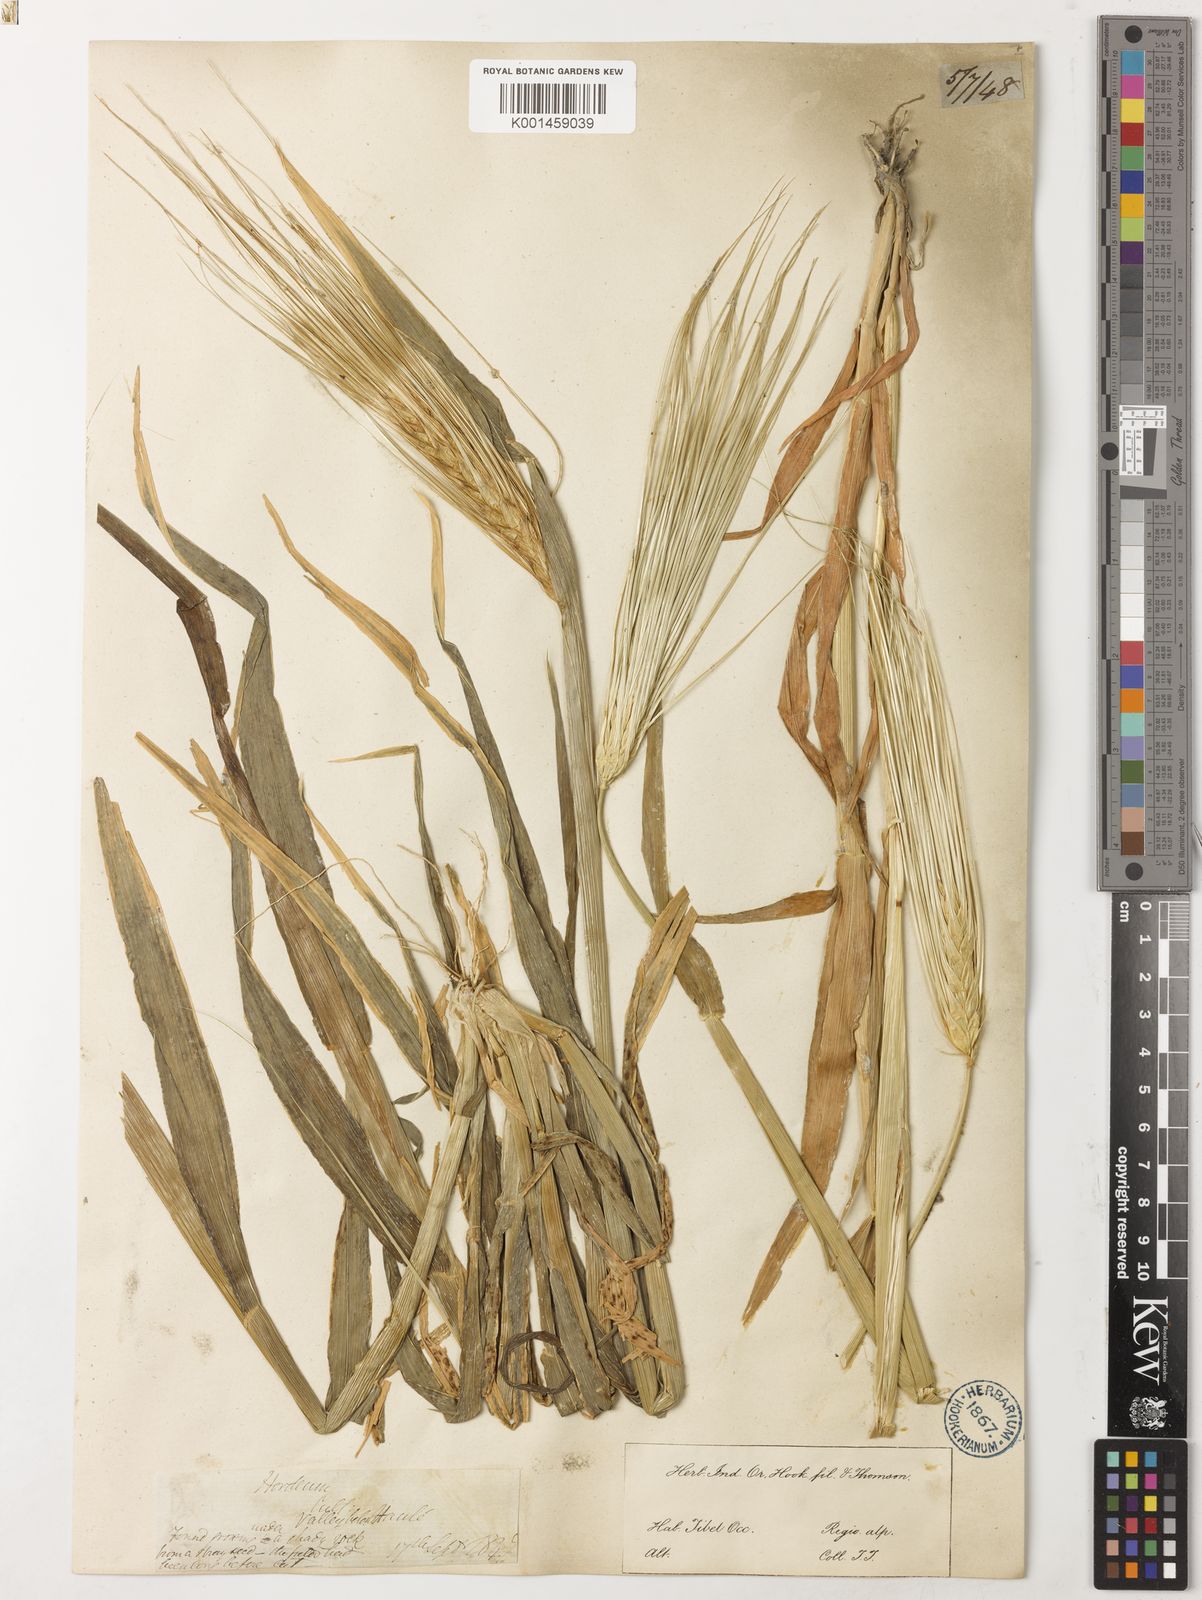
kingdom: Plantae
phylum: Tracheophyta
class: Liliopsida
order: Poales
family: Poaceae
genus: Hordeum
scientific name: Hordeum vulgare
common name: Common barley
